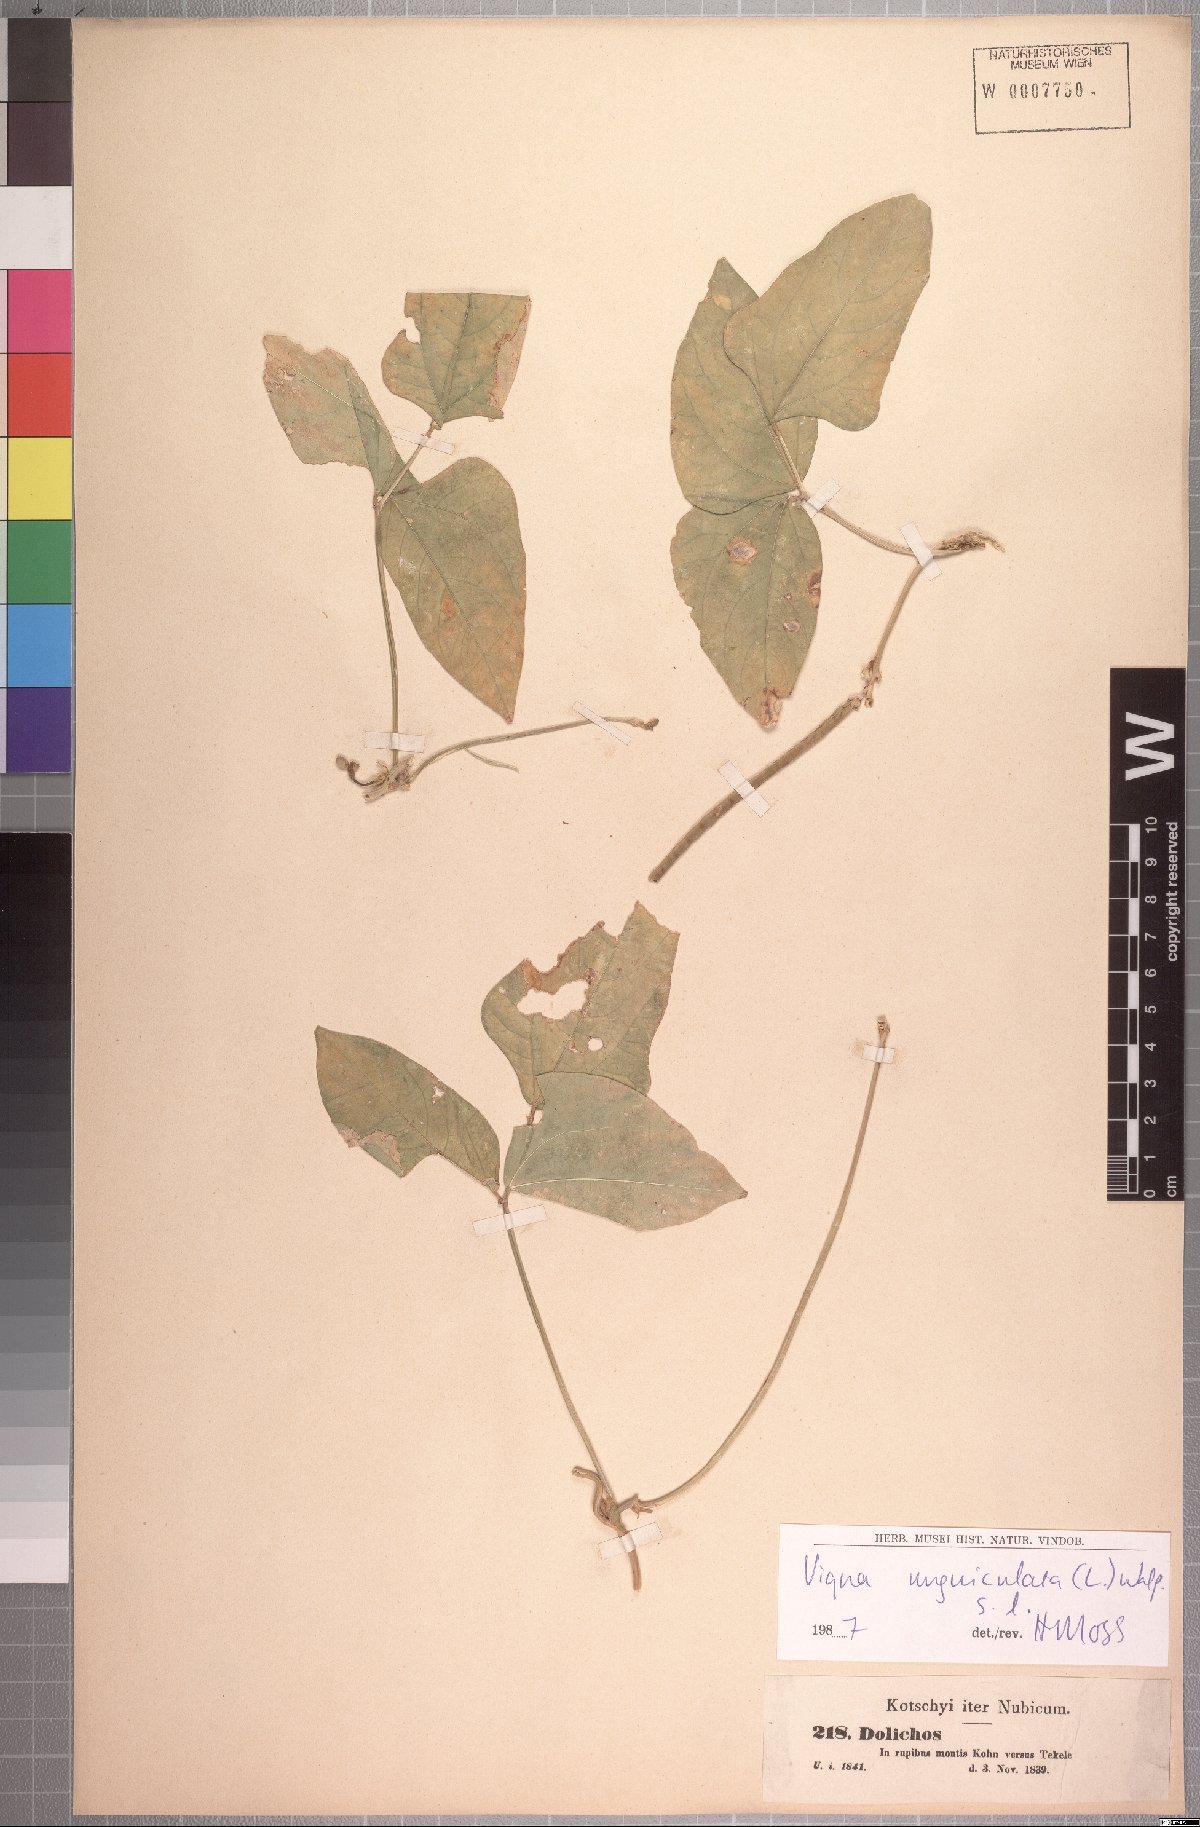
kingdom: Plantae
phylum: Tracheophyta
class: Magnoliopsida
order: Fabales
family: Fabaceae
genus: Vigna
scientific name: Vigna unguiculata
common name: Cowpea
